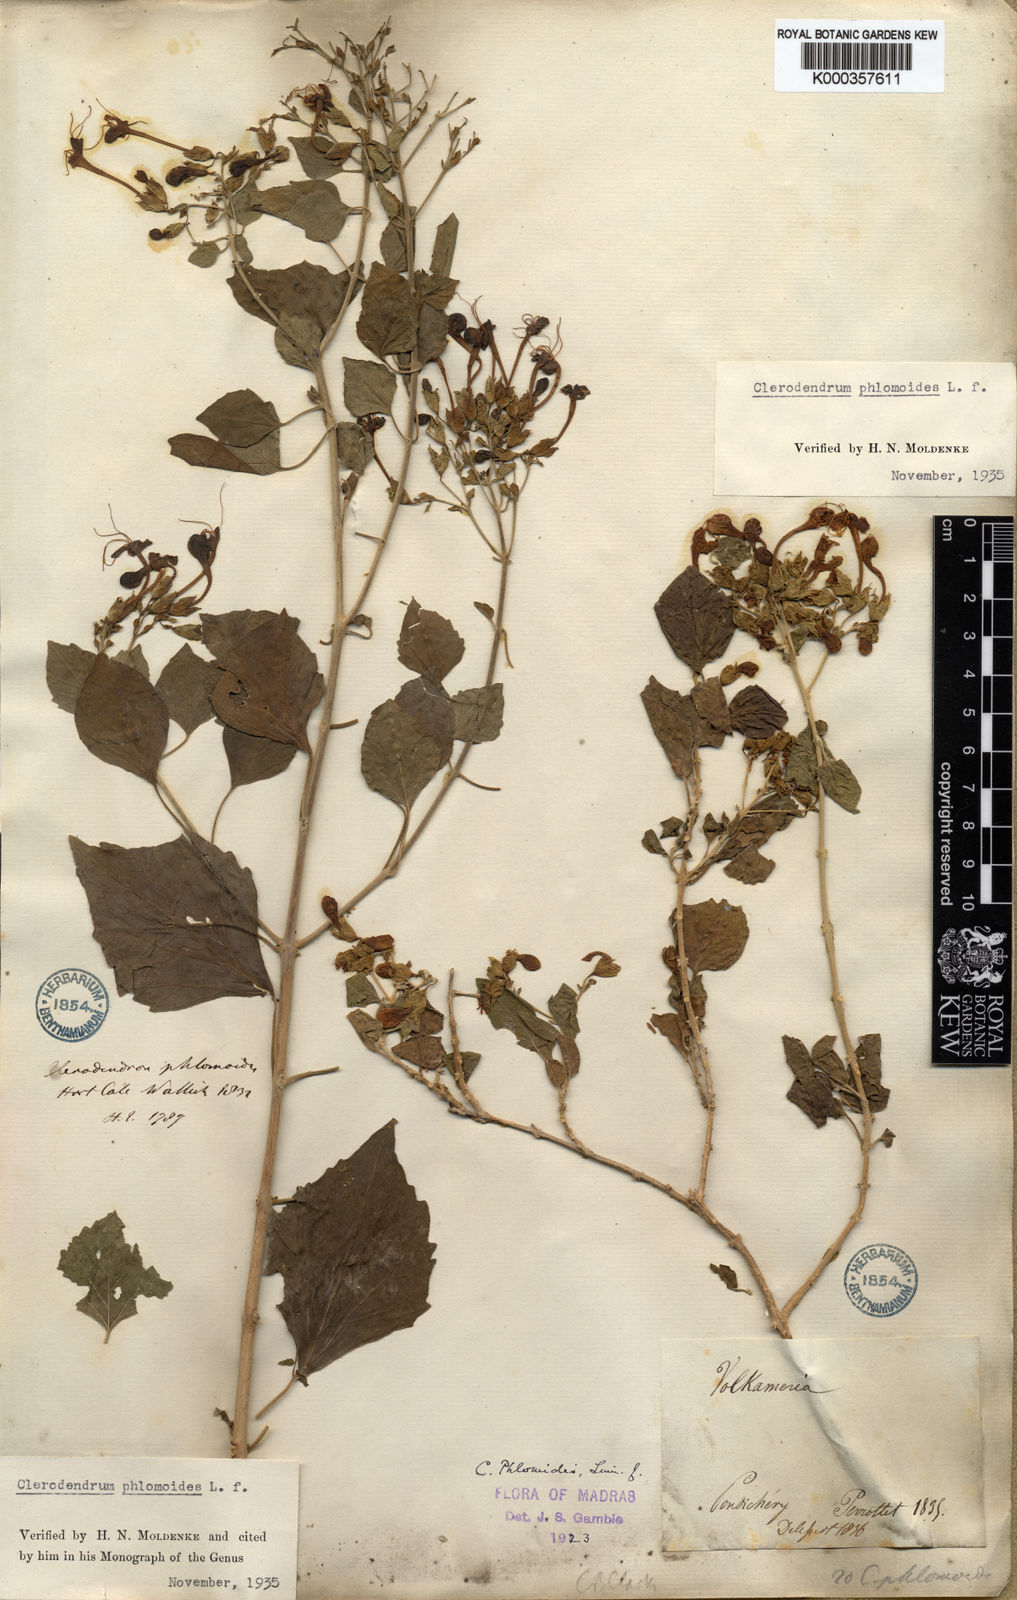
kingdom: Plantae
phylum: Tracheophyta
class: Magnoliopsida
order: Lamiales
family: Lamiaceae
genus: Clerodendrum
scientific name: Clerodendrum phlomidis
